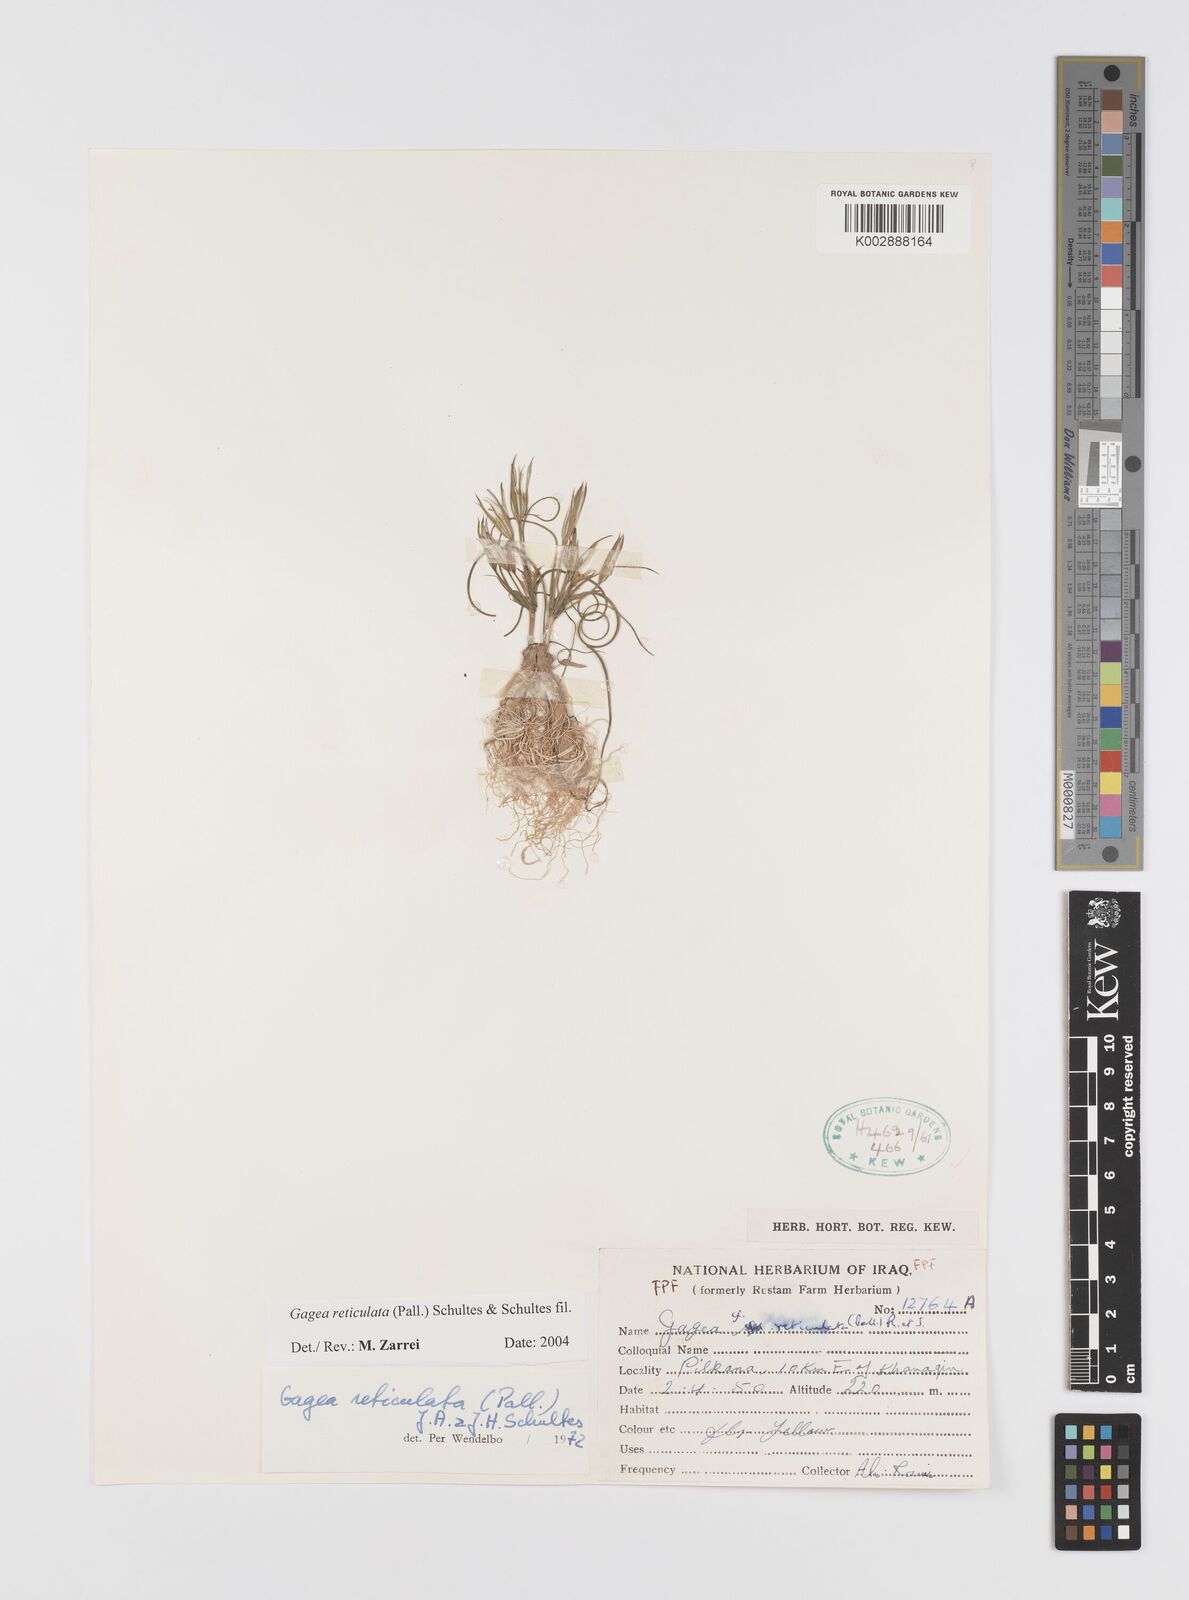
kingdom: Plantae
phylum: Tracheophyta
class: Liliopsida
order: Liliales
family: Liliaceae
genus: Gagea
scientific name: Gagea reticulata
